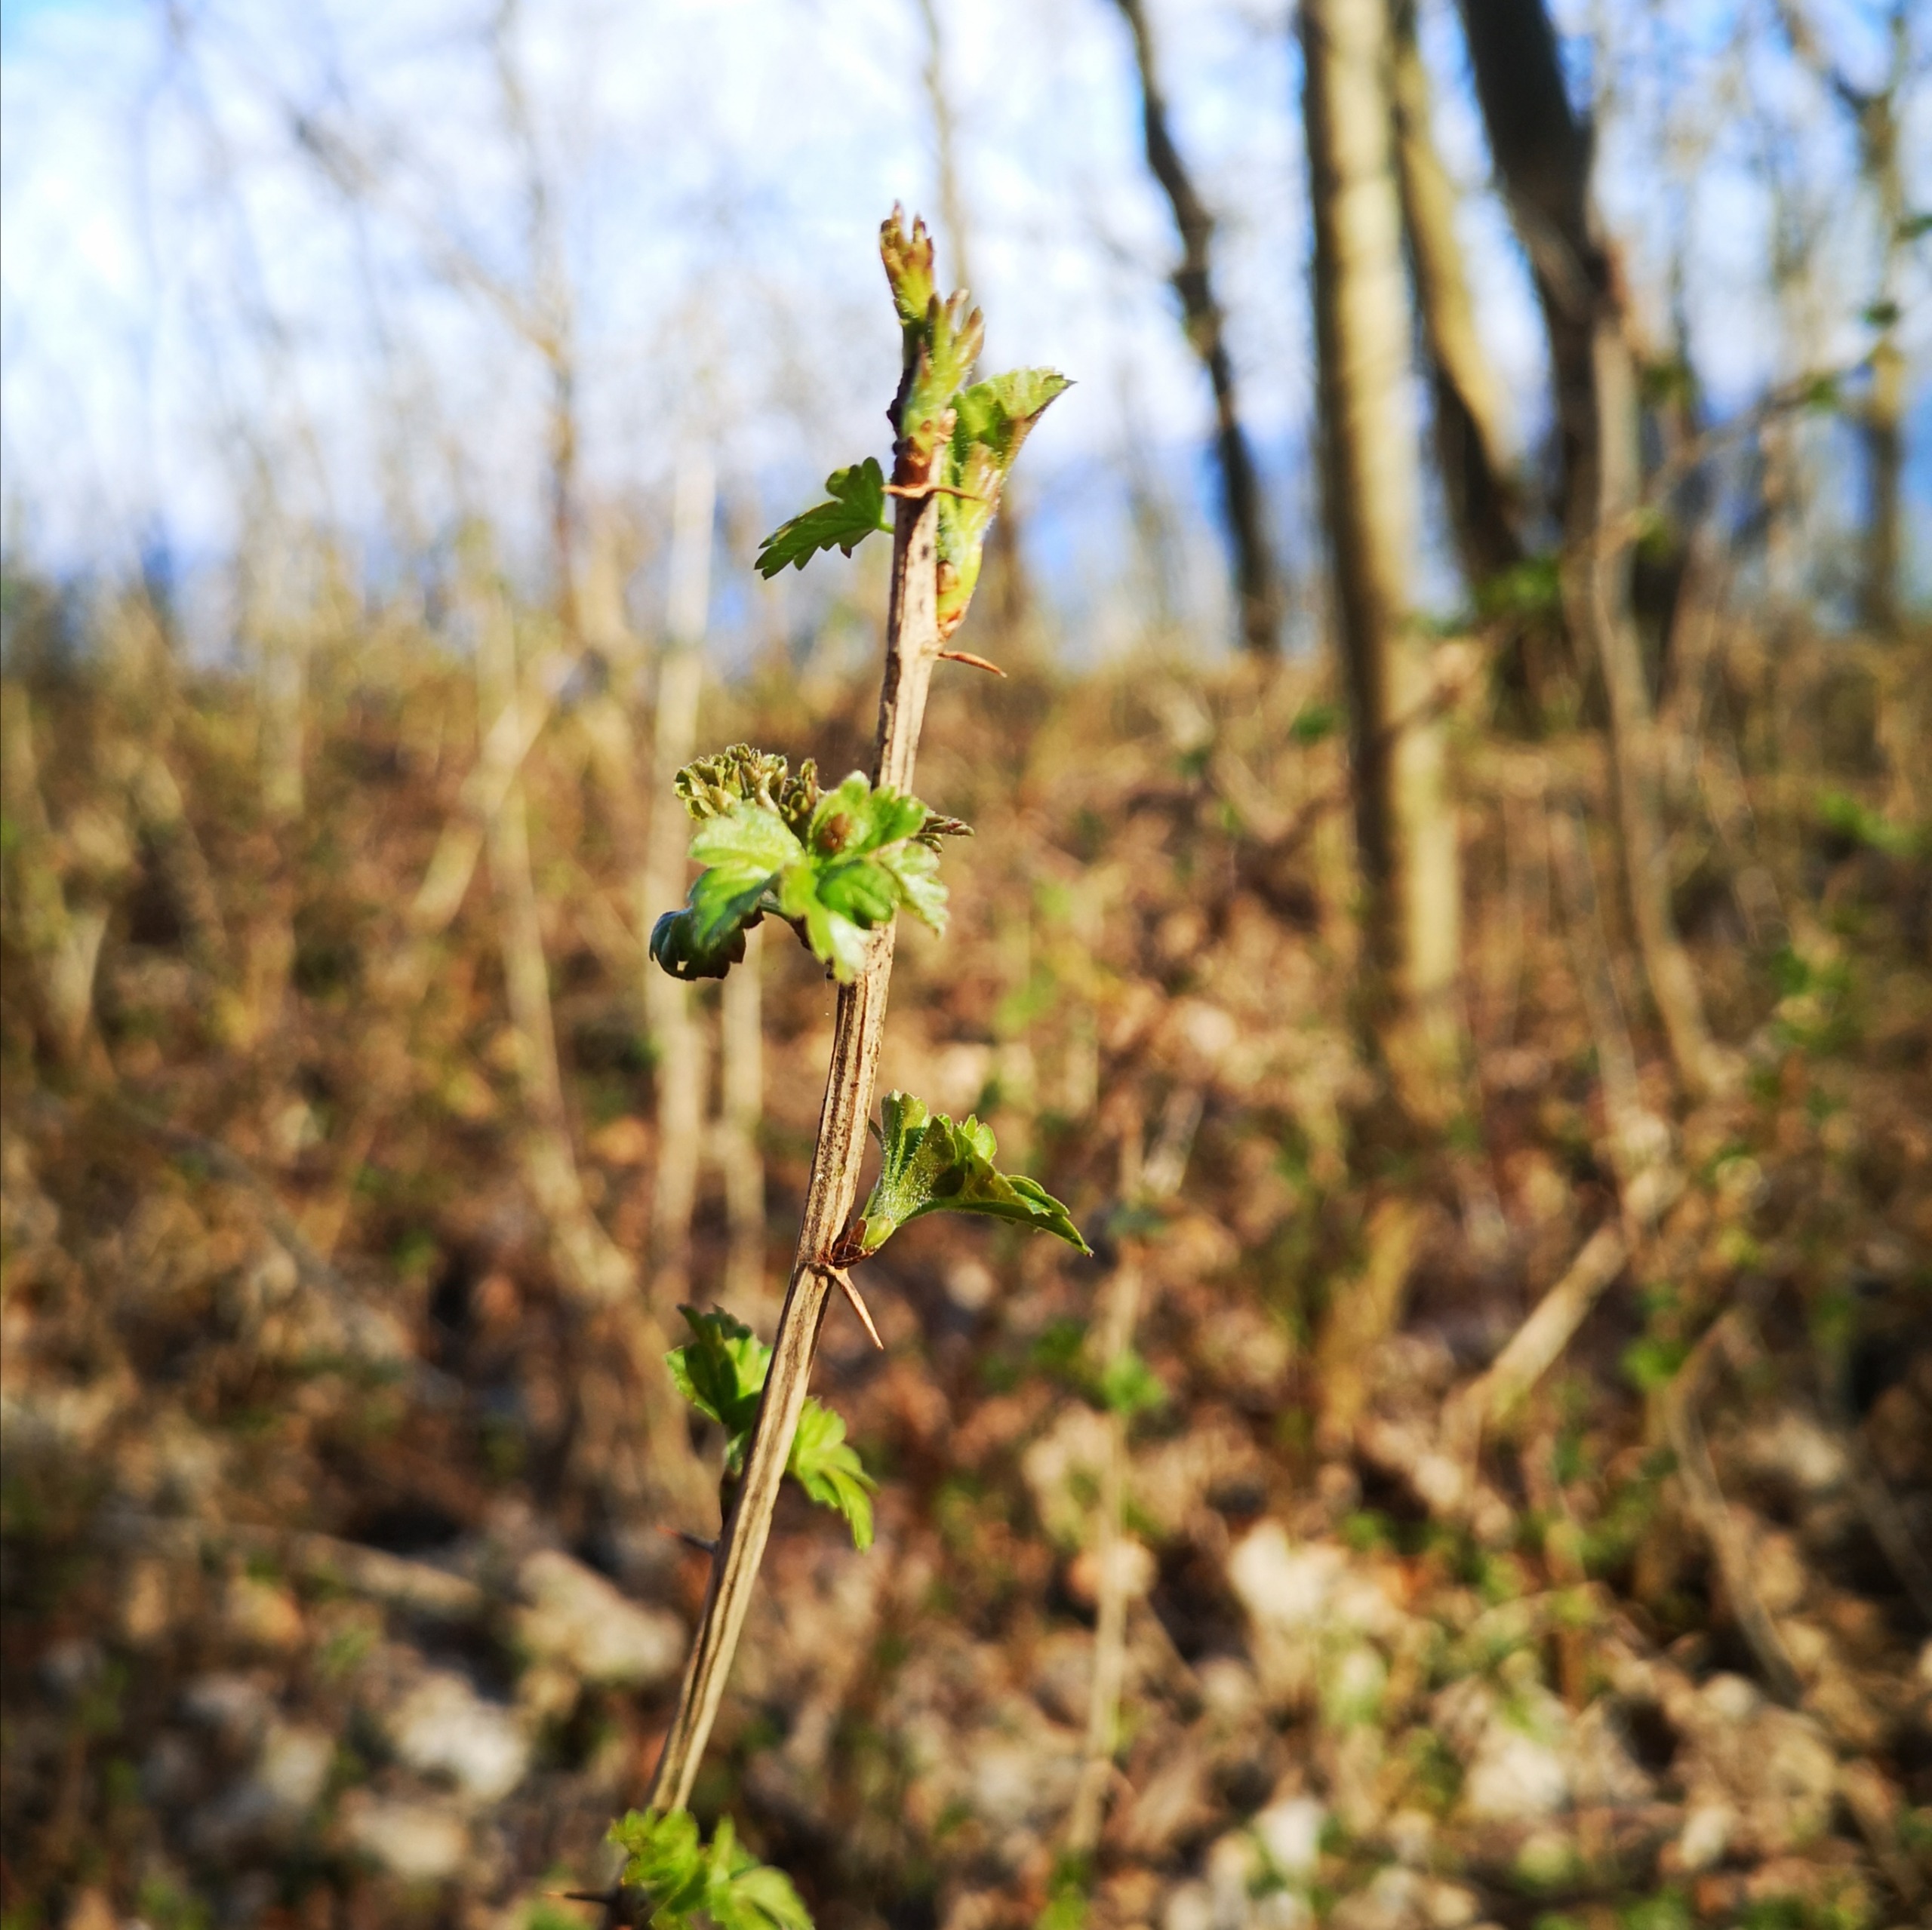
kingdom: Plantae
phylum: Tracheophyta
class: Magnoliopsida
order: Saxifragales
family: Grossulariaceae
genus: Ribes
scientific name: Ribes uva-crispa
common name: Stikkelsbær
